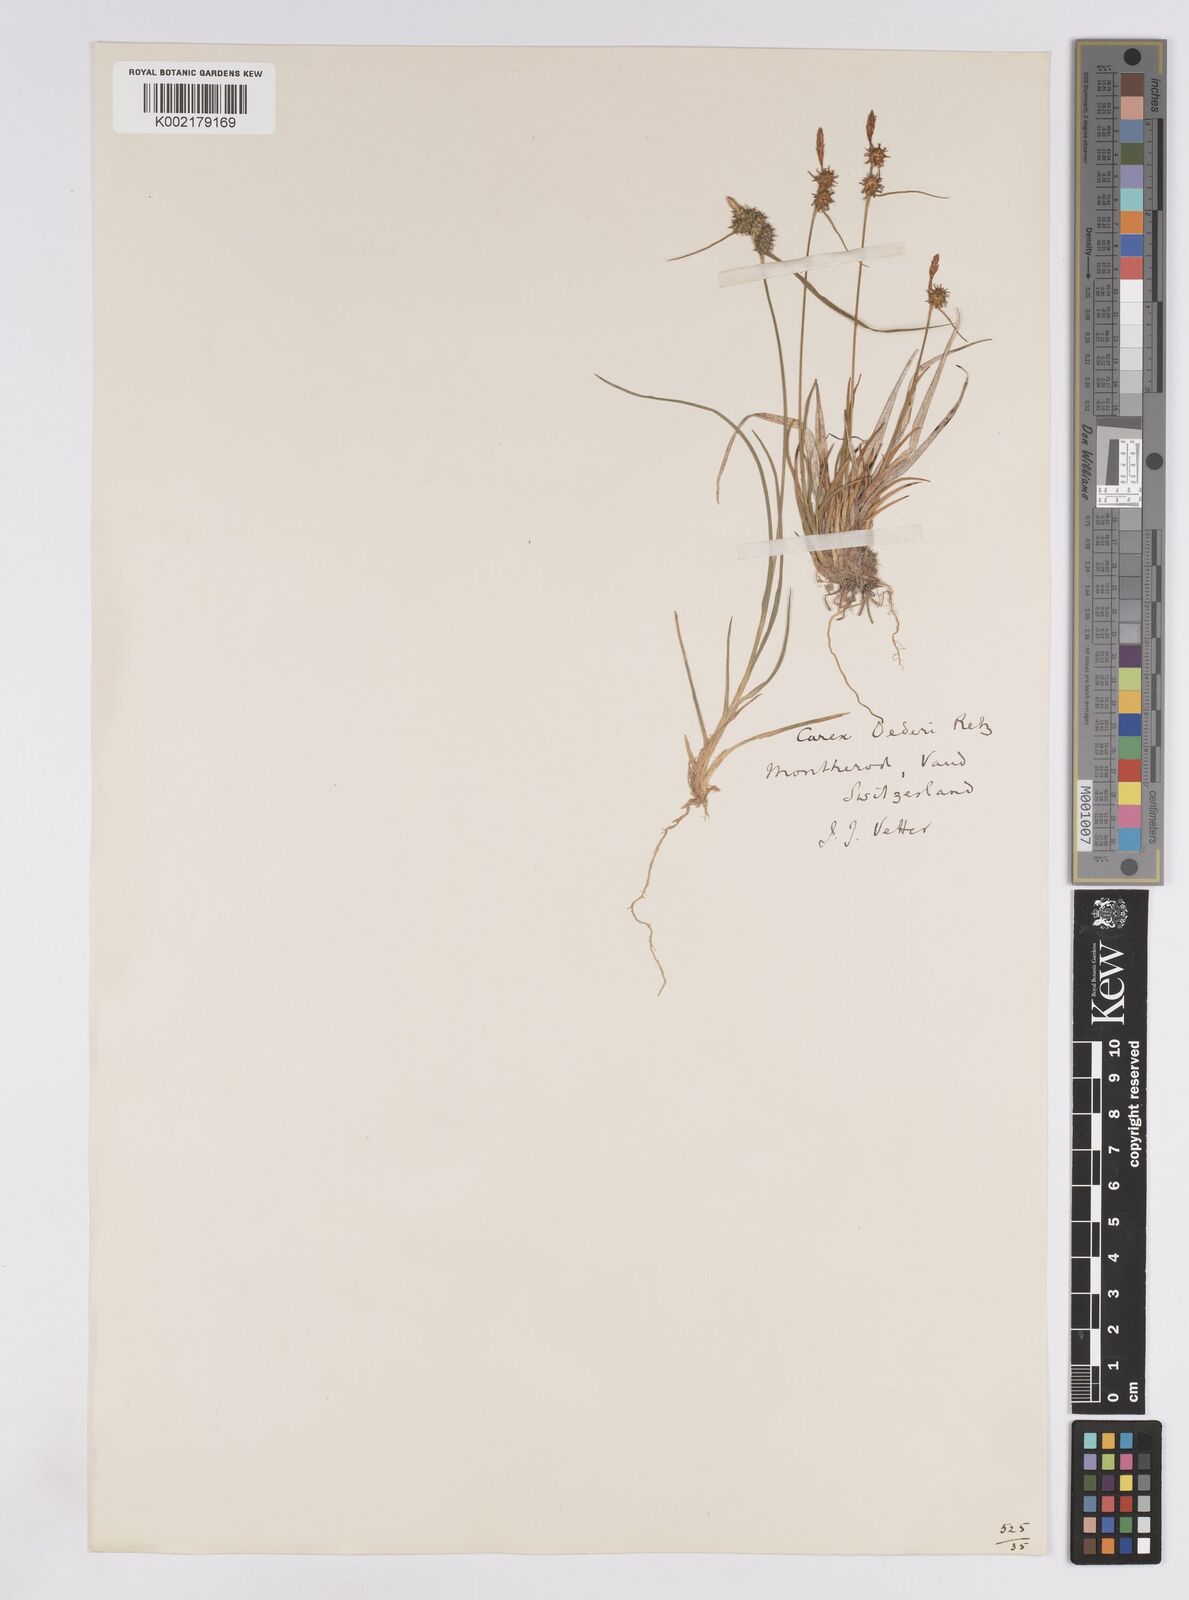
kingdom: Plantae
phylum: Tracheophyta
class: Liliopsida
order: Poales
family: Cyperaceae
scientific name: Cyperaceae
